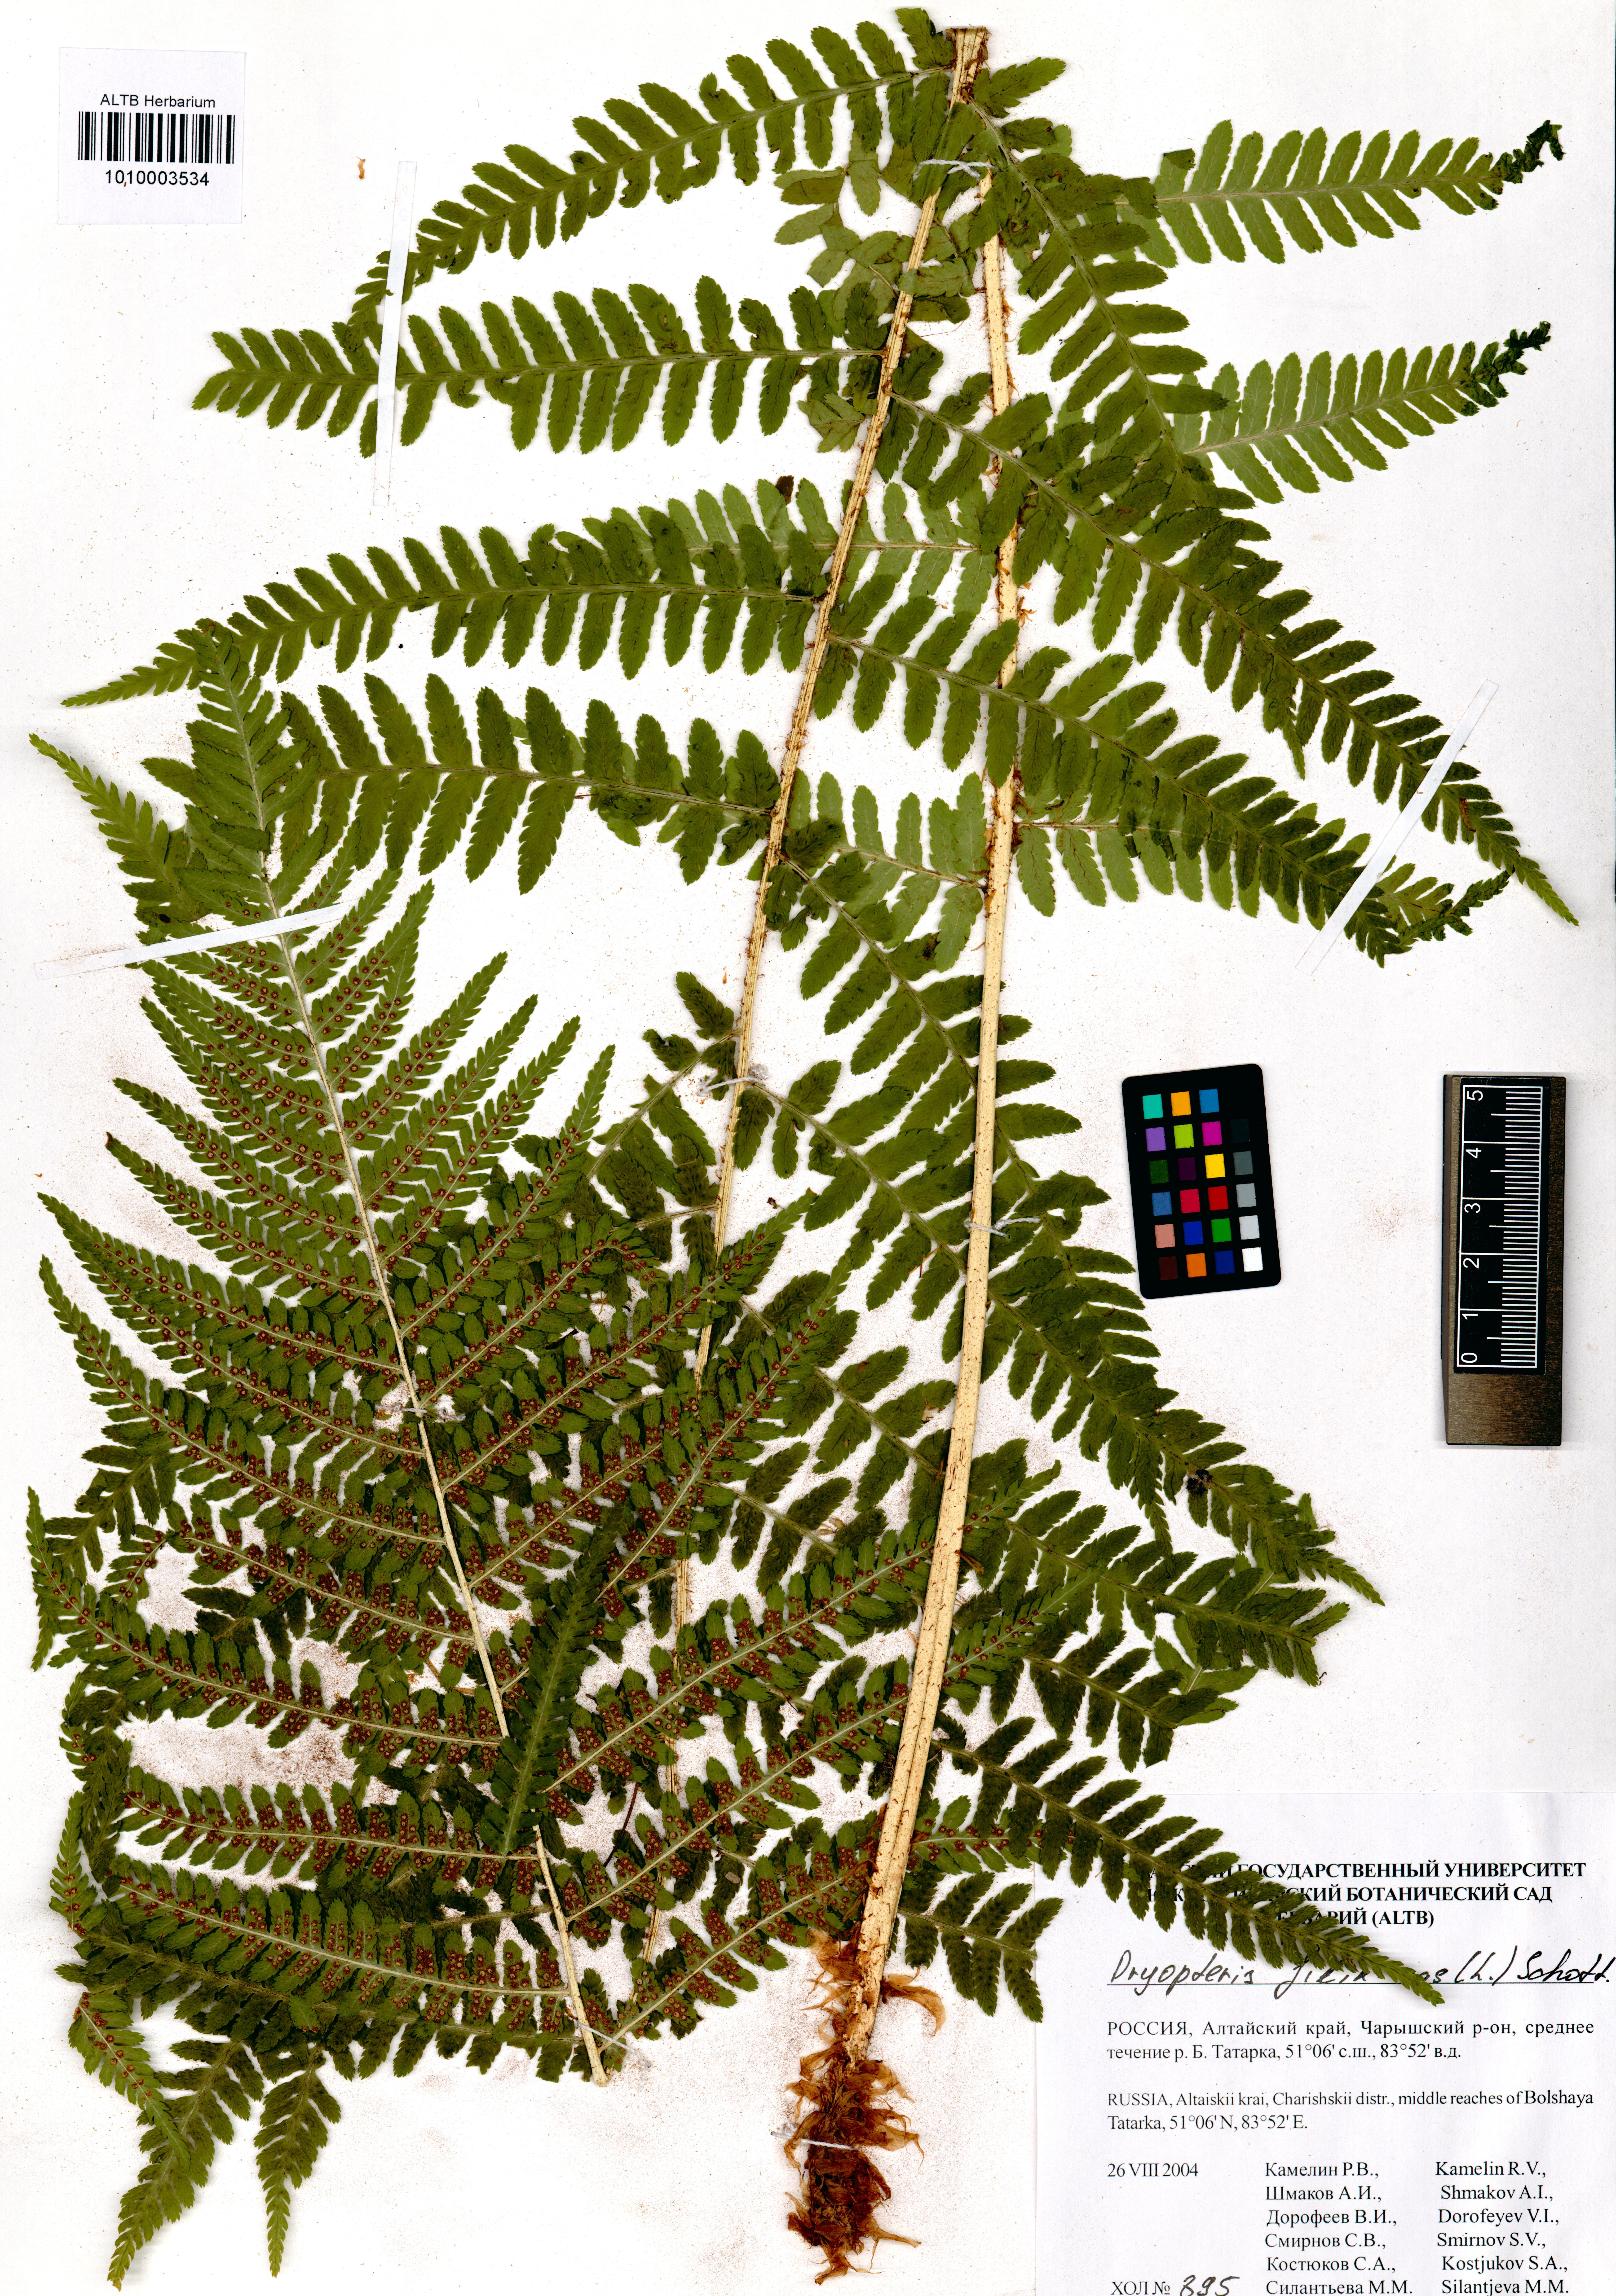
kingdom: Plantae
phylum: Tracheophyta
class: Polypodiopsida
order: Polypodiales
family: Dryopteridaceae
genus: Dryopteris
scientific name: Dryopteris filix-mas
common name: Male fern
